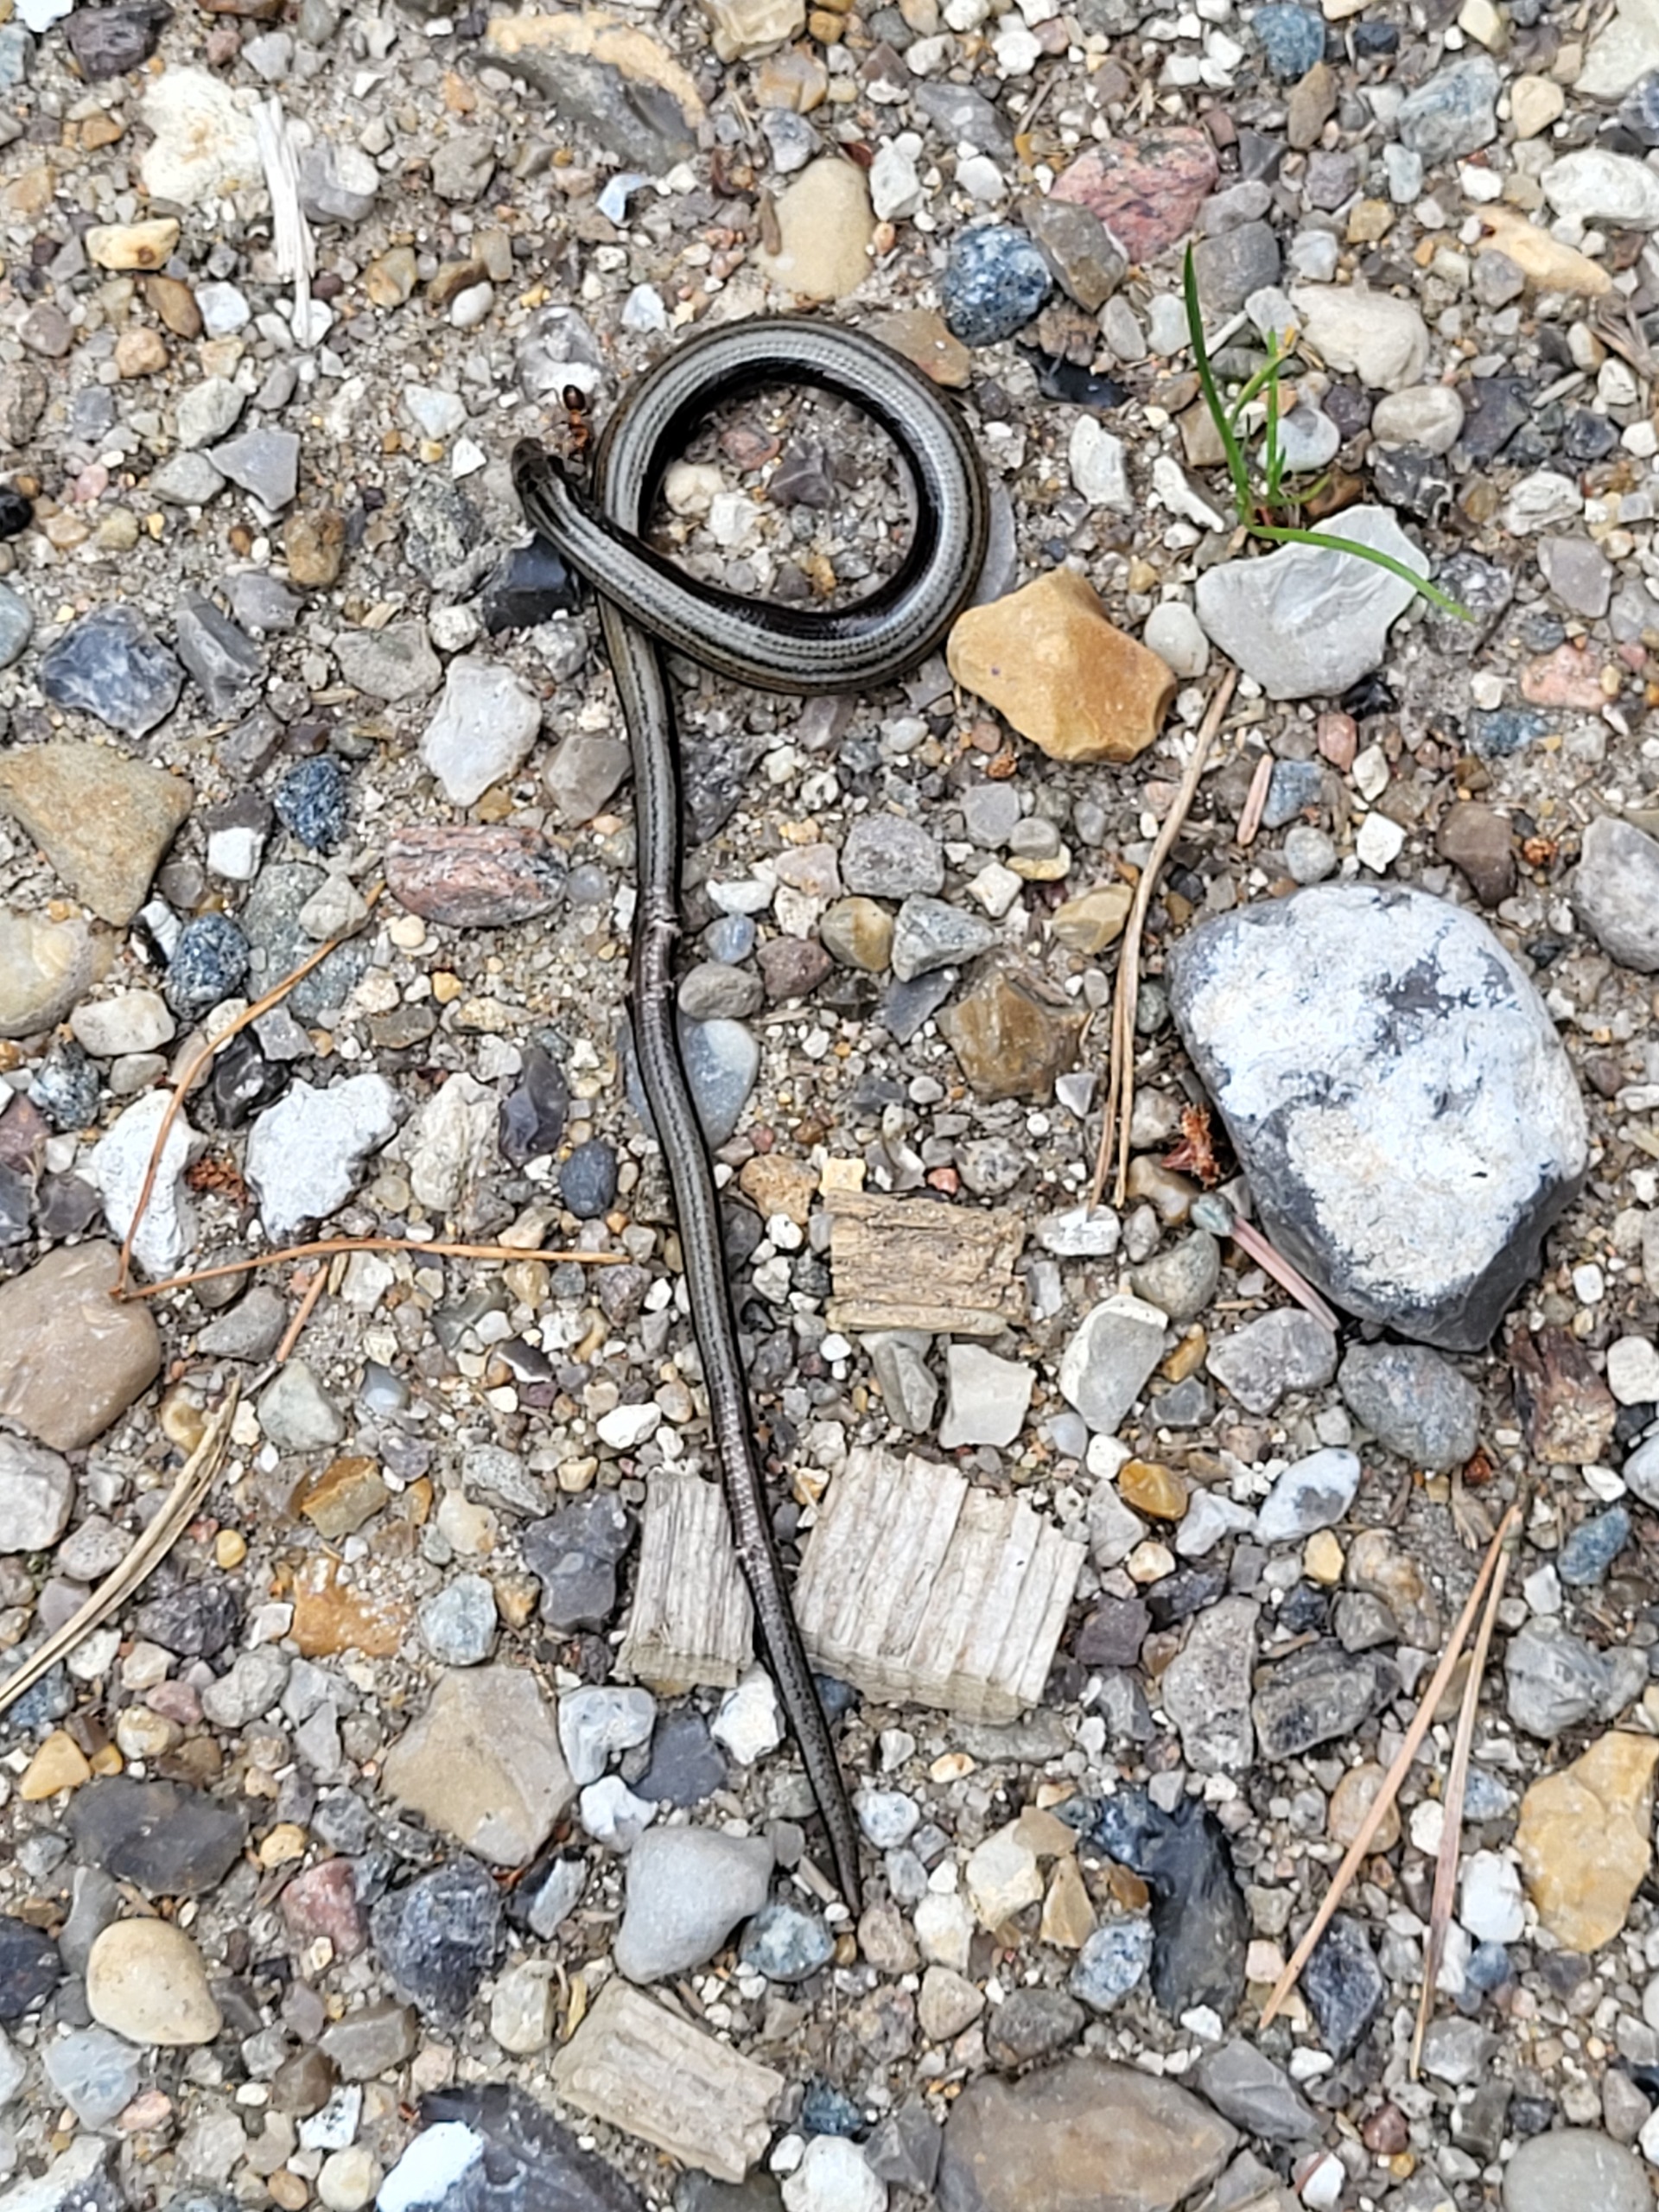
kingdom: Animalia
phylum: Chordata
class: Squamata
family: Anguidae
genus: Anguis
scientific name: Anguis fragilis
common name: Stålorm
